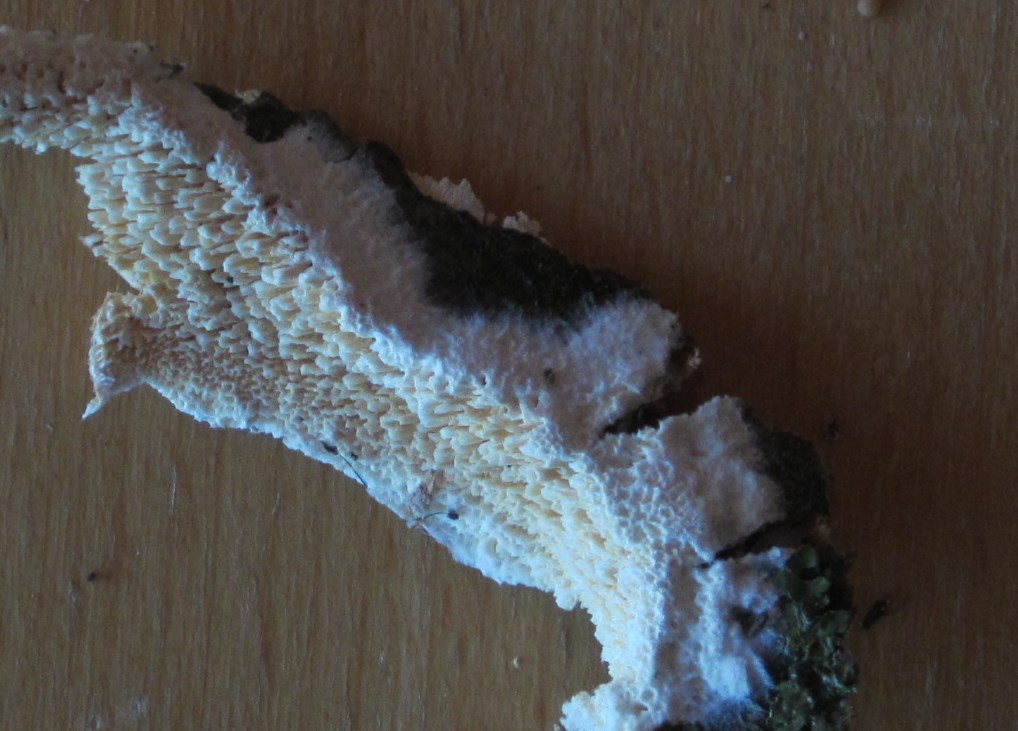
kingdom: Fungi
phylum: Basidiomycota
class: Agaricomycetes
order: Hymenochaetales
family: Schizoporaceae
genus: Schizopora
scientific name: Schizopora paradoxa
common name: hvid tandsvamp
